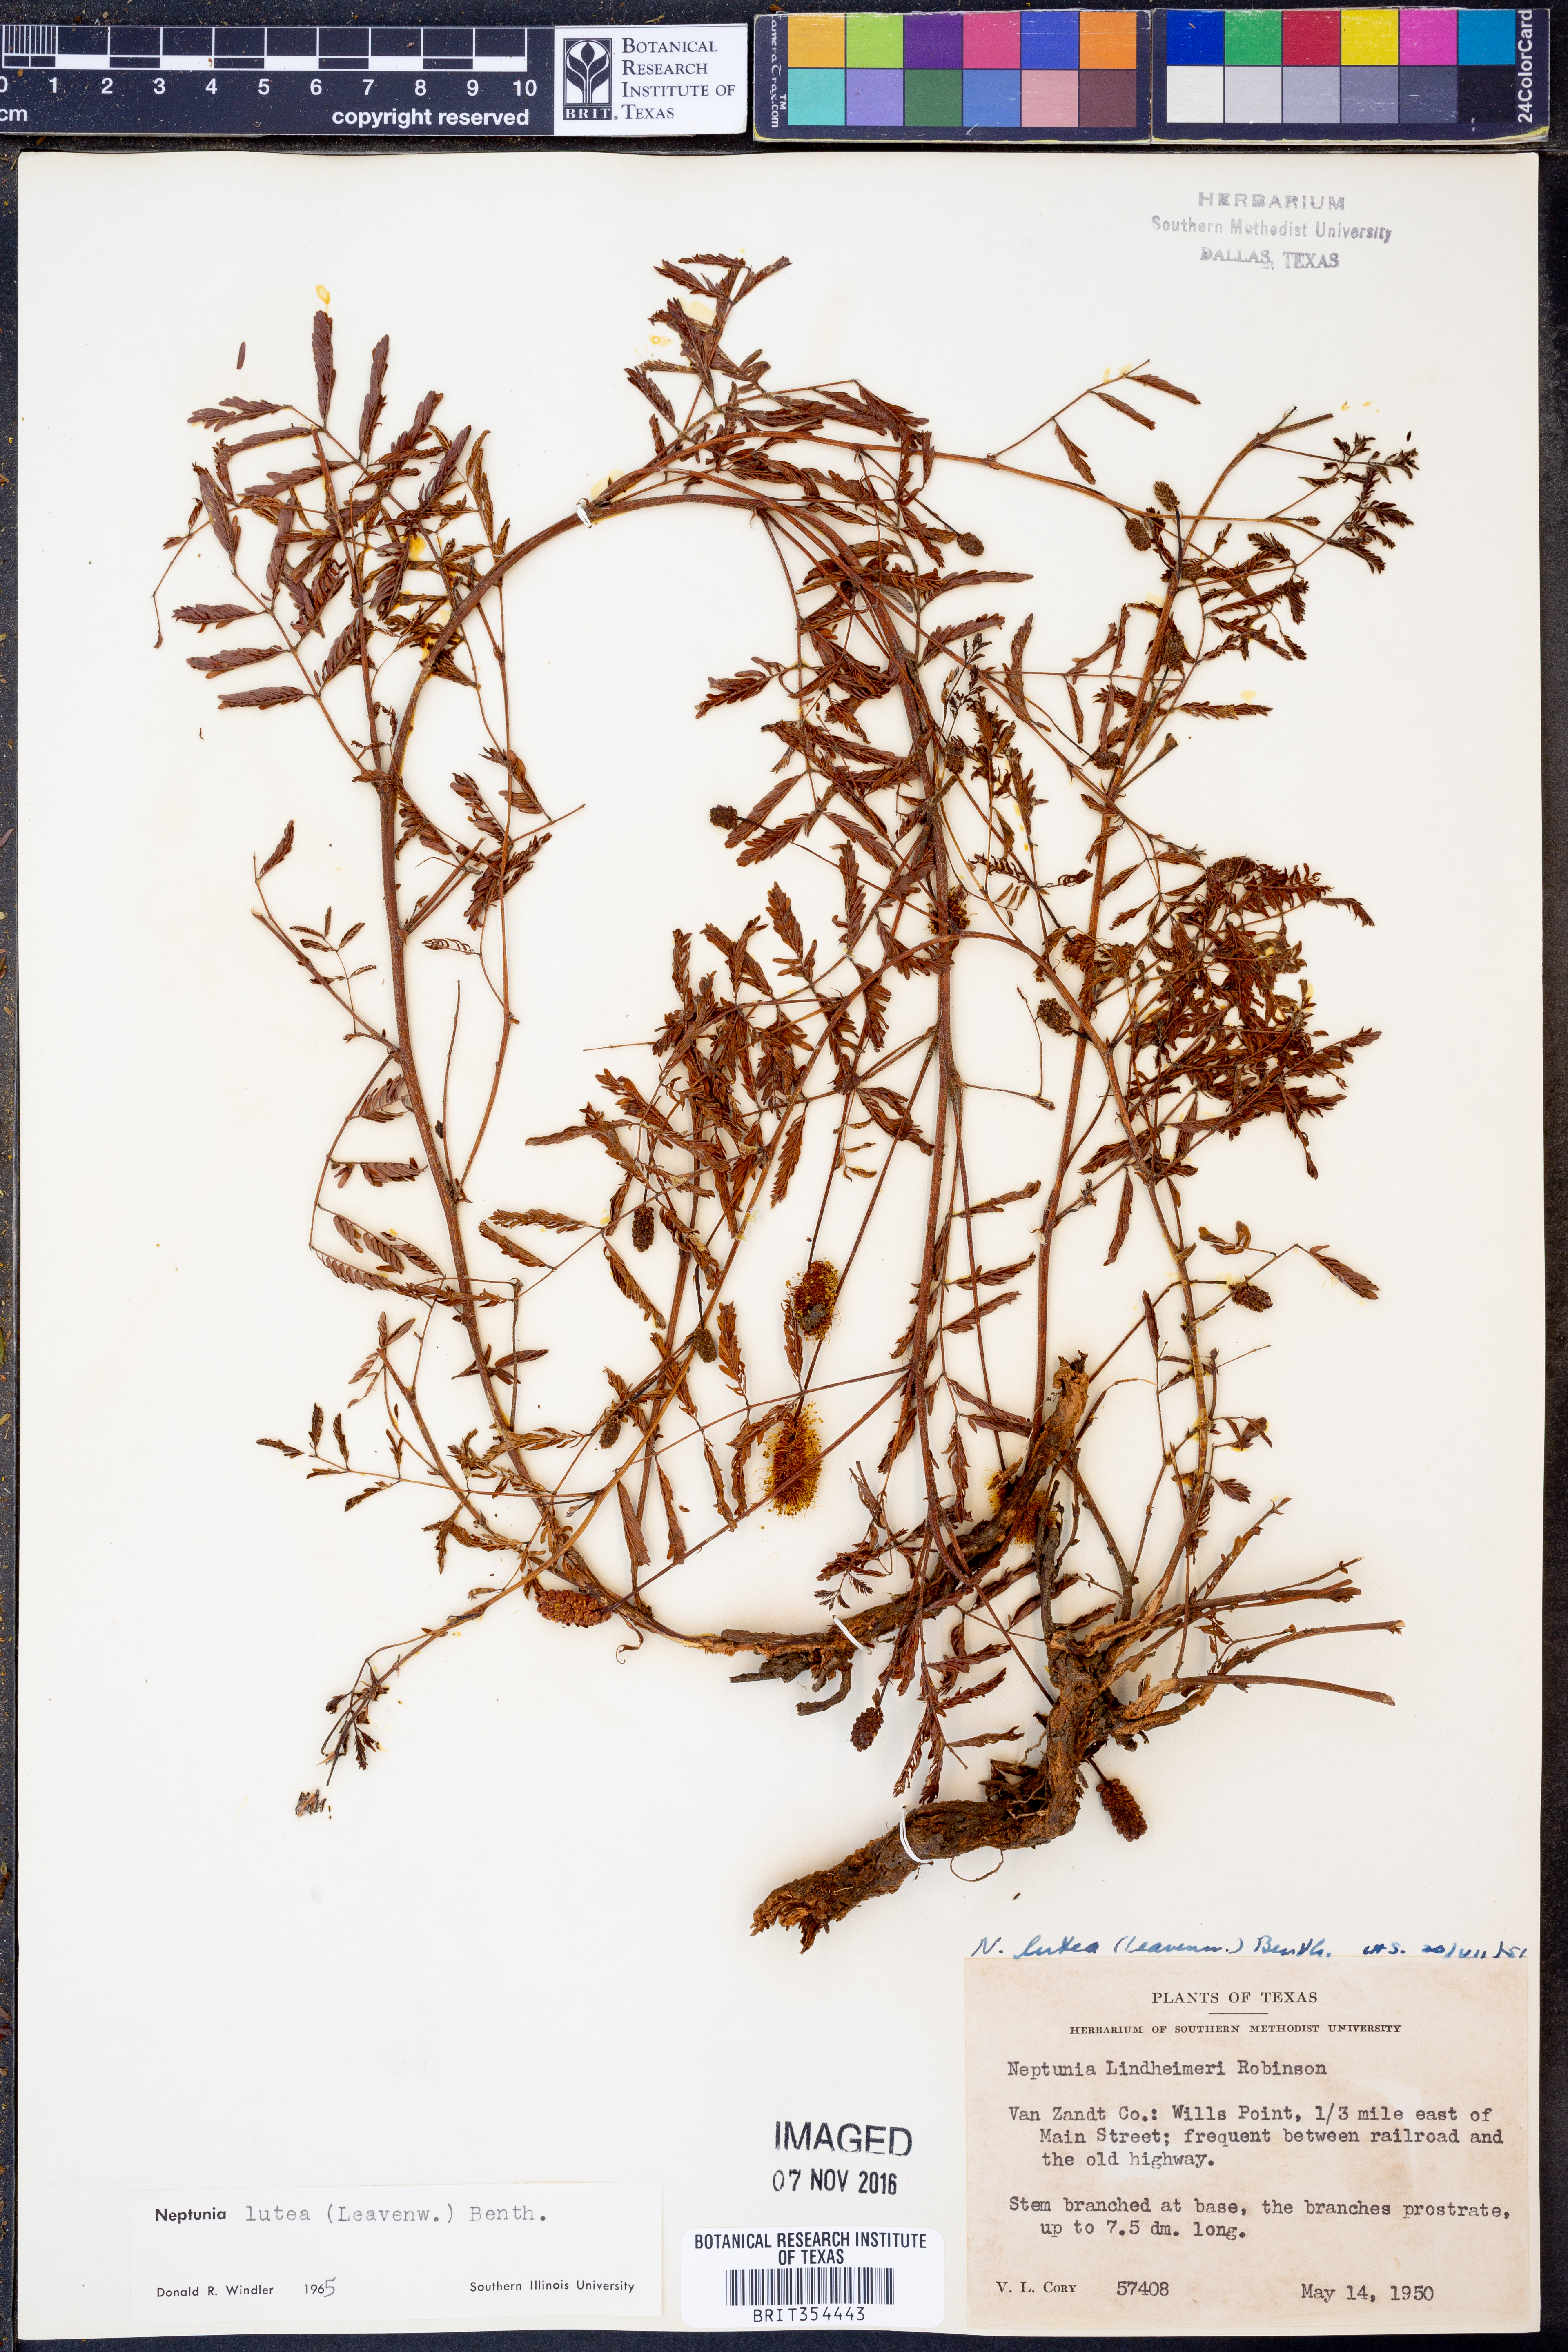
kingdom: Plantae
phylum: Tracheophyta
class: Magnoliopsida
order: Fabales
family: Fabaceae
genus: Neptunia
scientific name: Neptunia lutea
